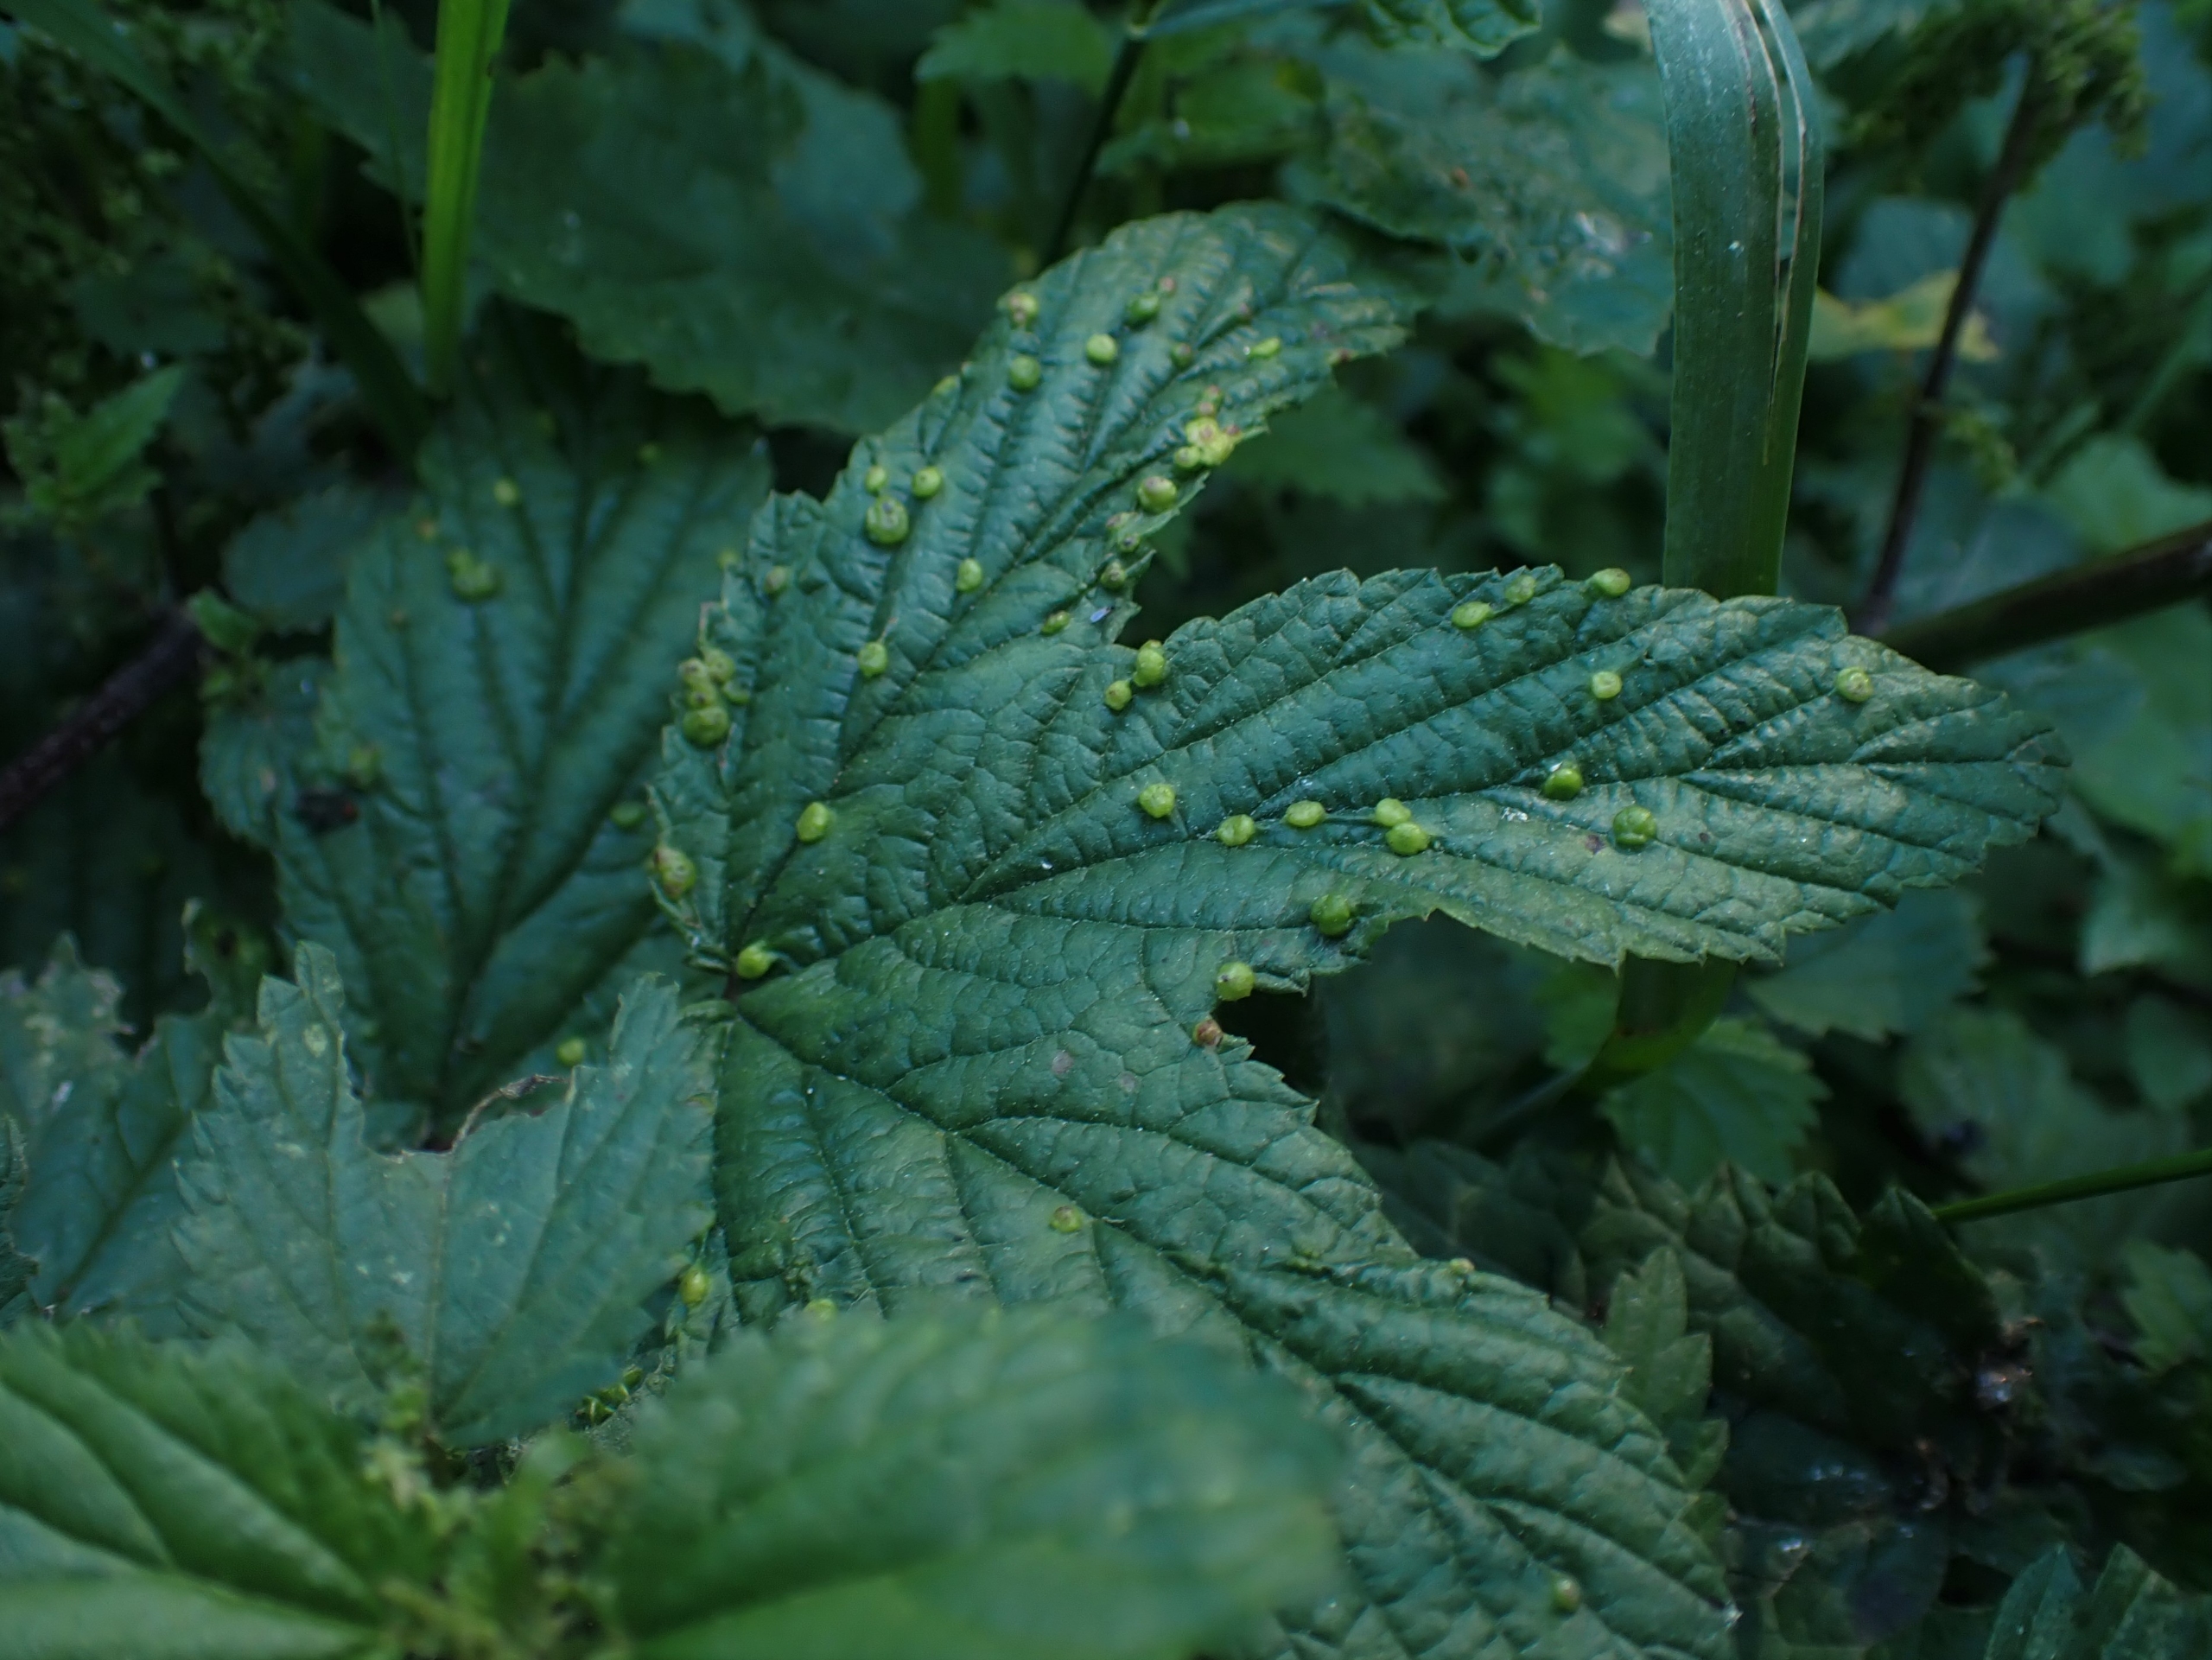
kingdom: Animalia
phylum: Arthropoda
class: Insecta
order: Diptera
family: Cecidomyiidae
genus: Dasineura
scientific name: Dasineura ulmaria
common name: Mjødurtgalmyg
